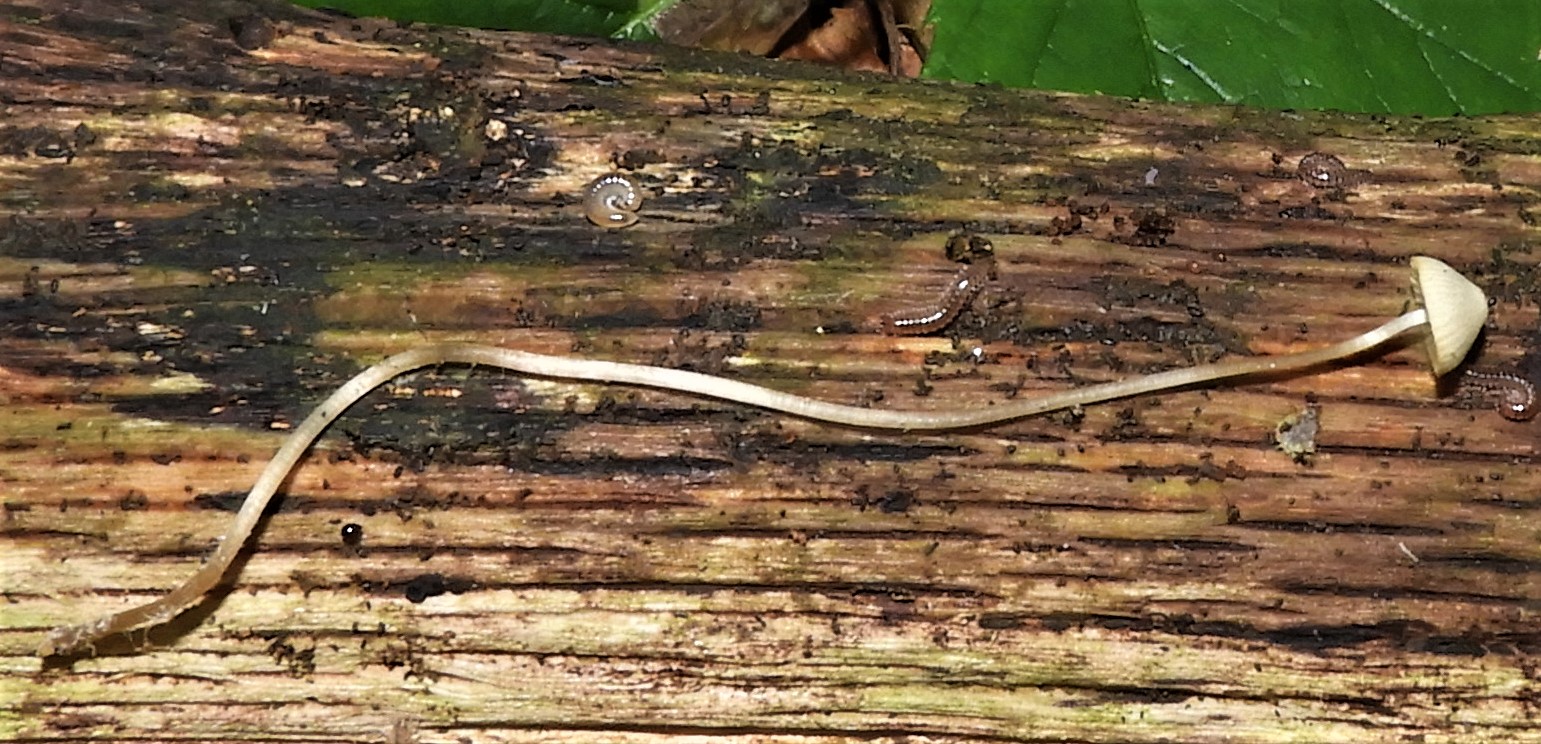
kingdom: Fungi
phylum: Basidiomycota
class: Agaricomycetes
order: Agaricales
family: Mycenaceae
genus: Mycena
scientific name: Mycena vitilis
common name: blankstokket huesvamp
